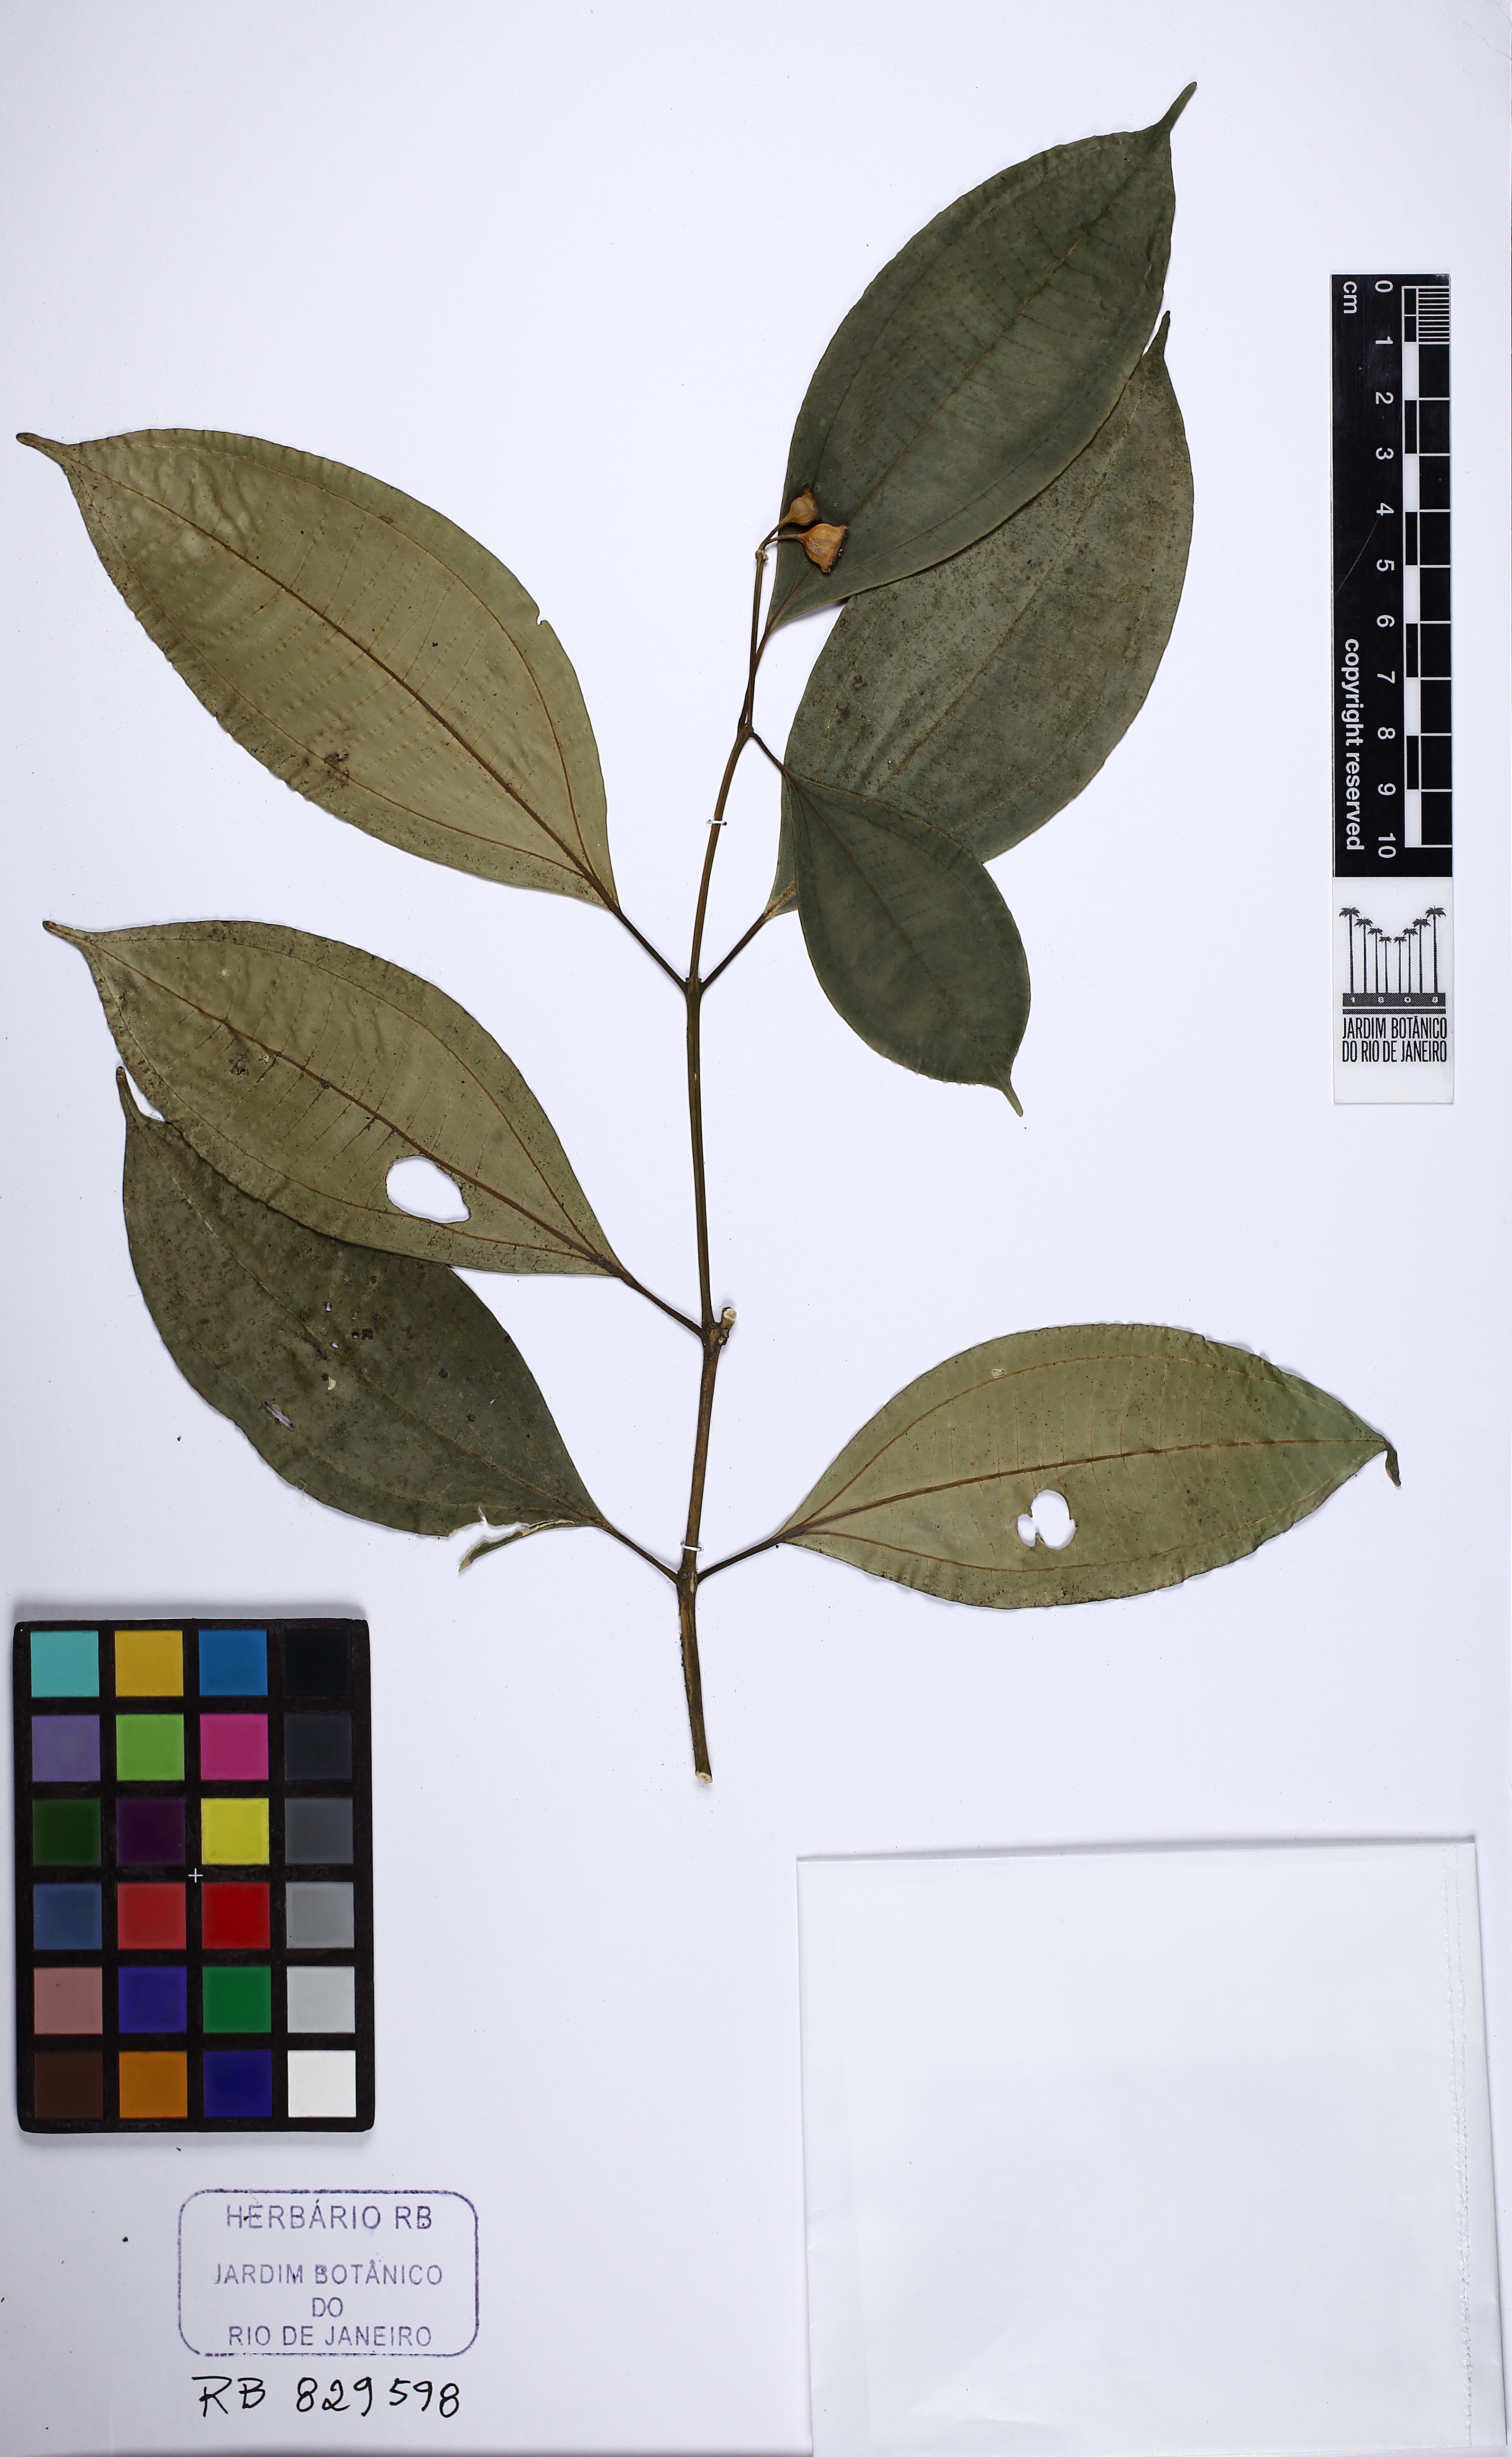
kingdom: Plantae
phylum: Tracheophyta
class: Magnoliopsida
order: Myrtales
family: Melastomataceae
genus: Meriania
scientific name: Meriania glabra
